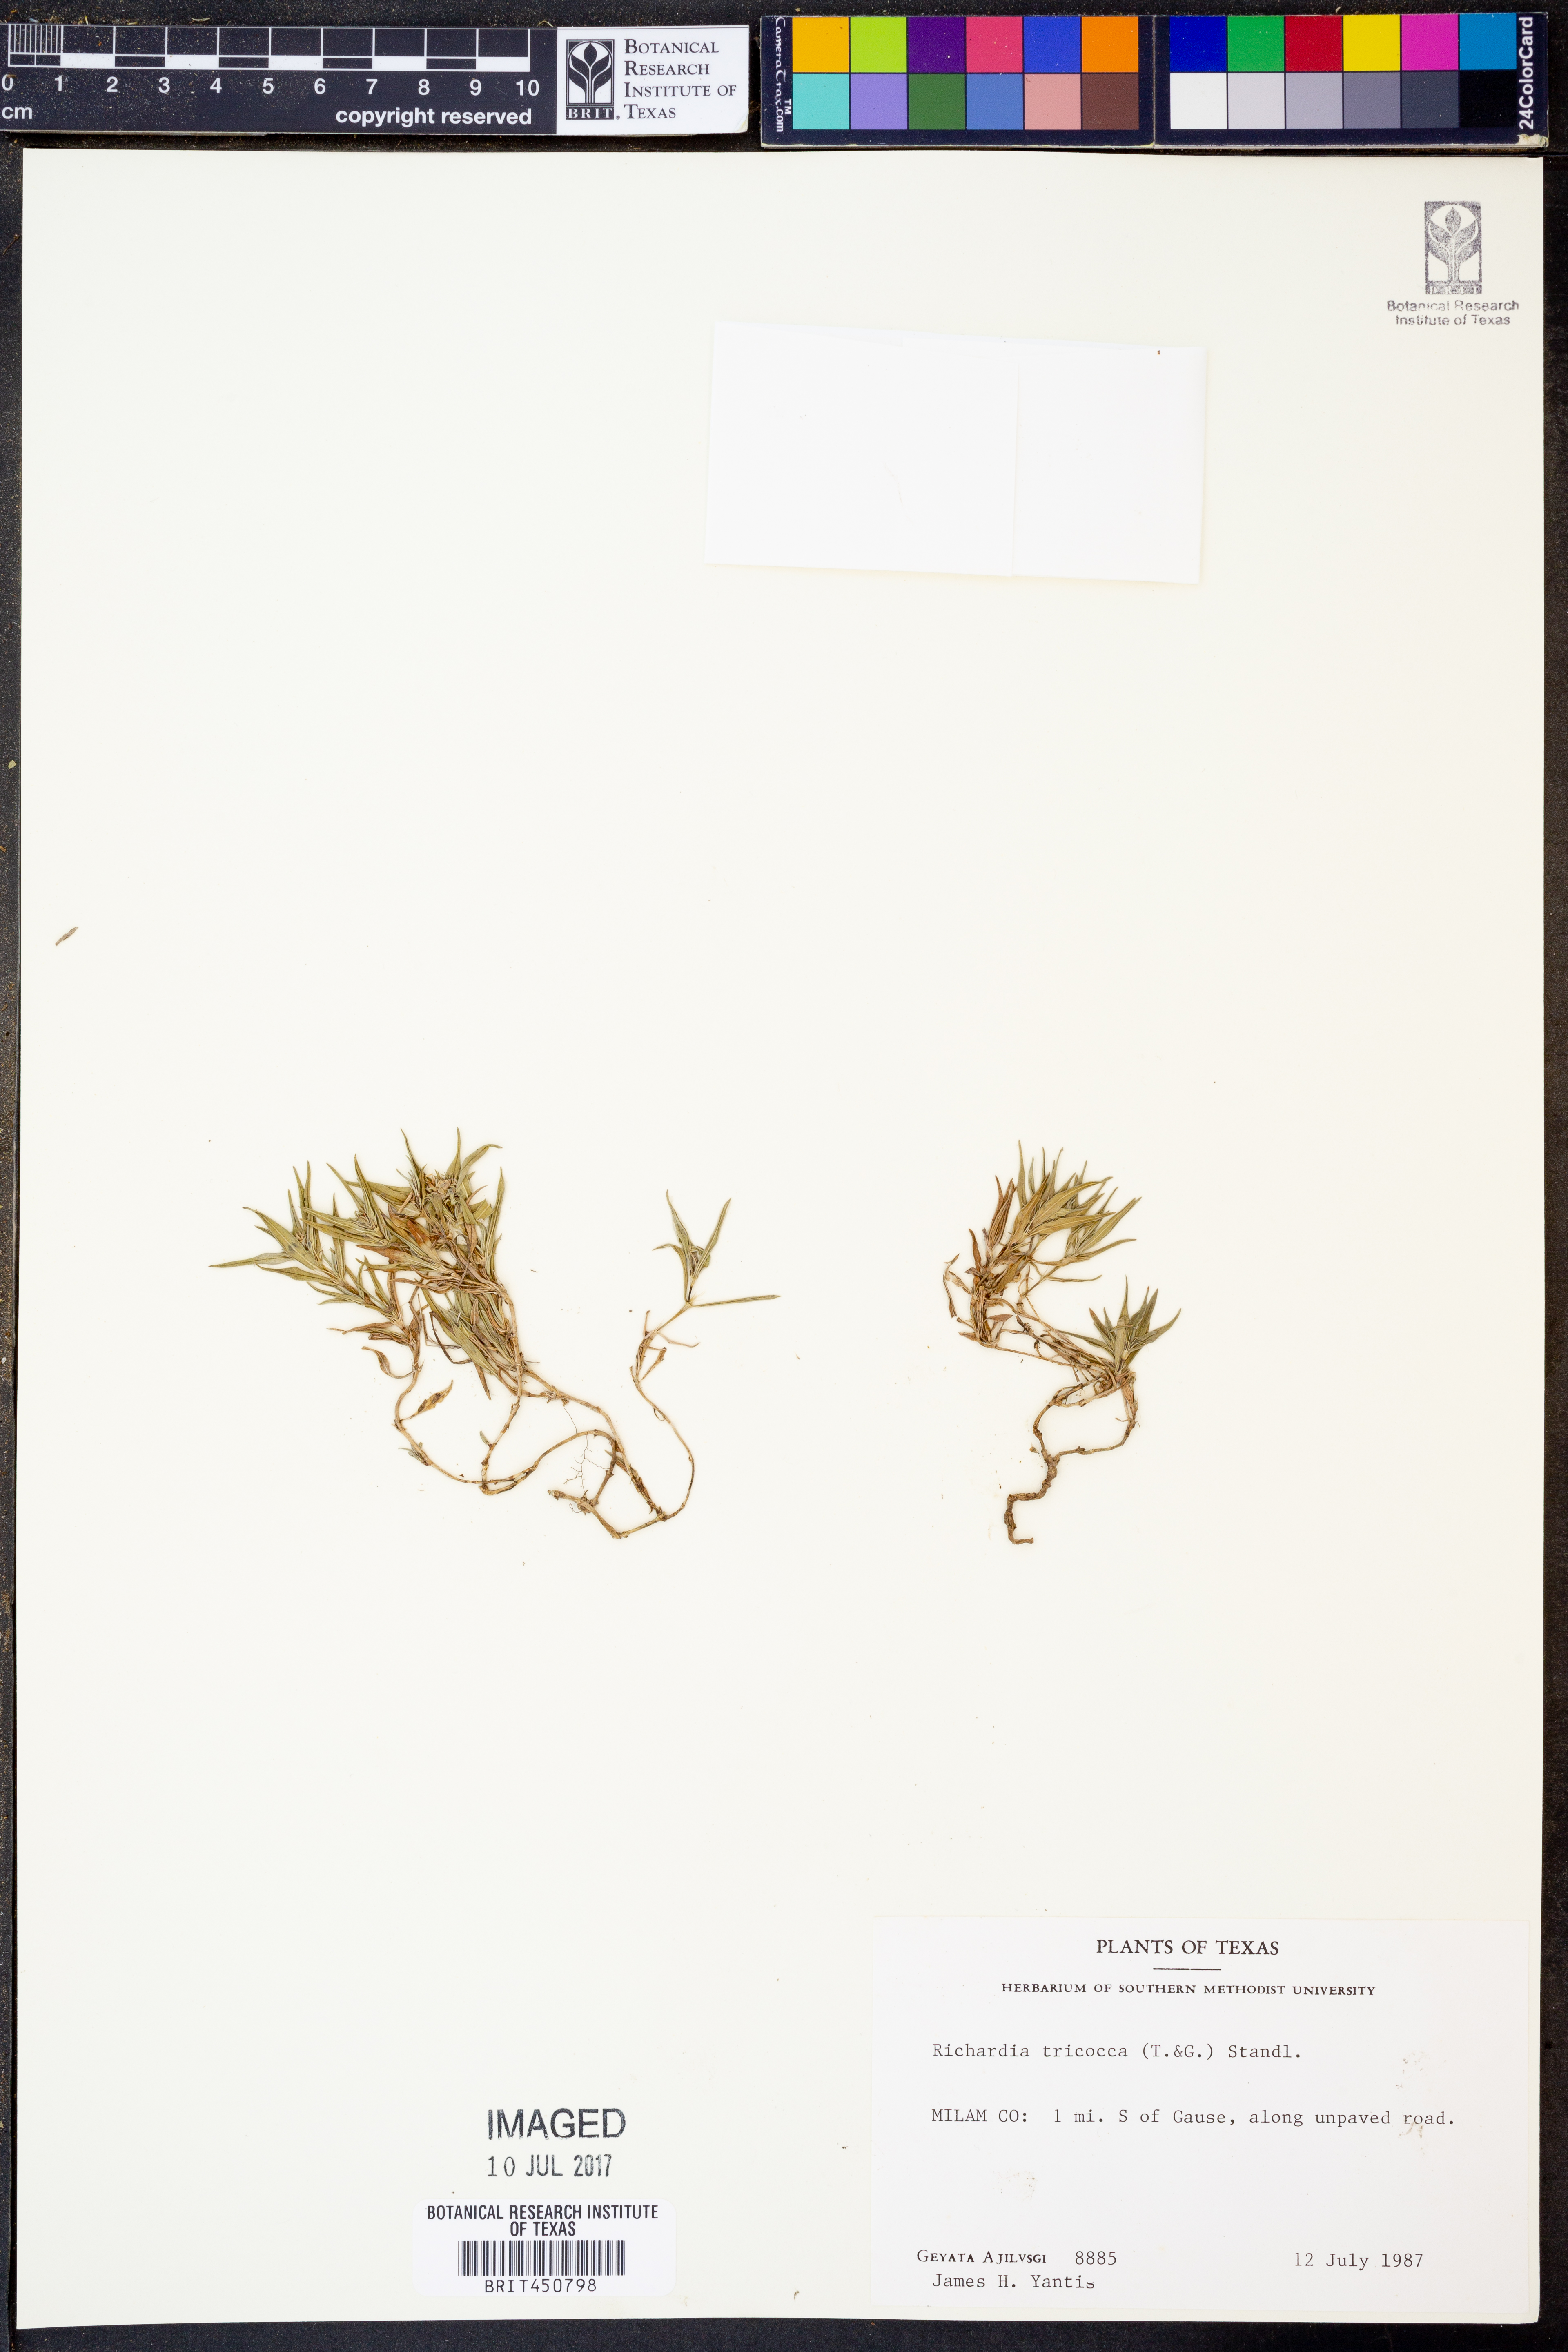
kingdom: Plantae
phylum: Tracheophyta
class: Magnoliopsida
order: Gentianales
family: Rubiaceae
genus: Richardia
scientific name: Richardia tricocca
